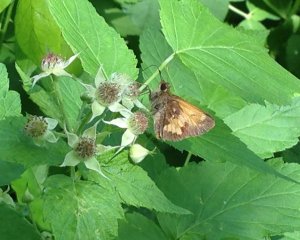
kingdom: Animalia
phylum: Arthropoda
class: Insecta
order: Lepidoptera
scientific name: Lepidoptera
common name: Butterflies
